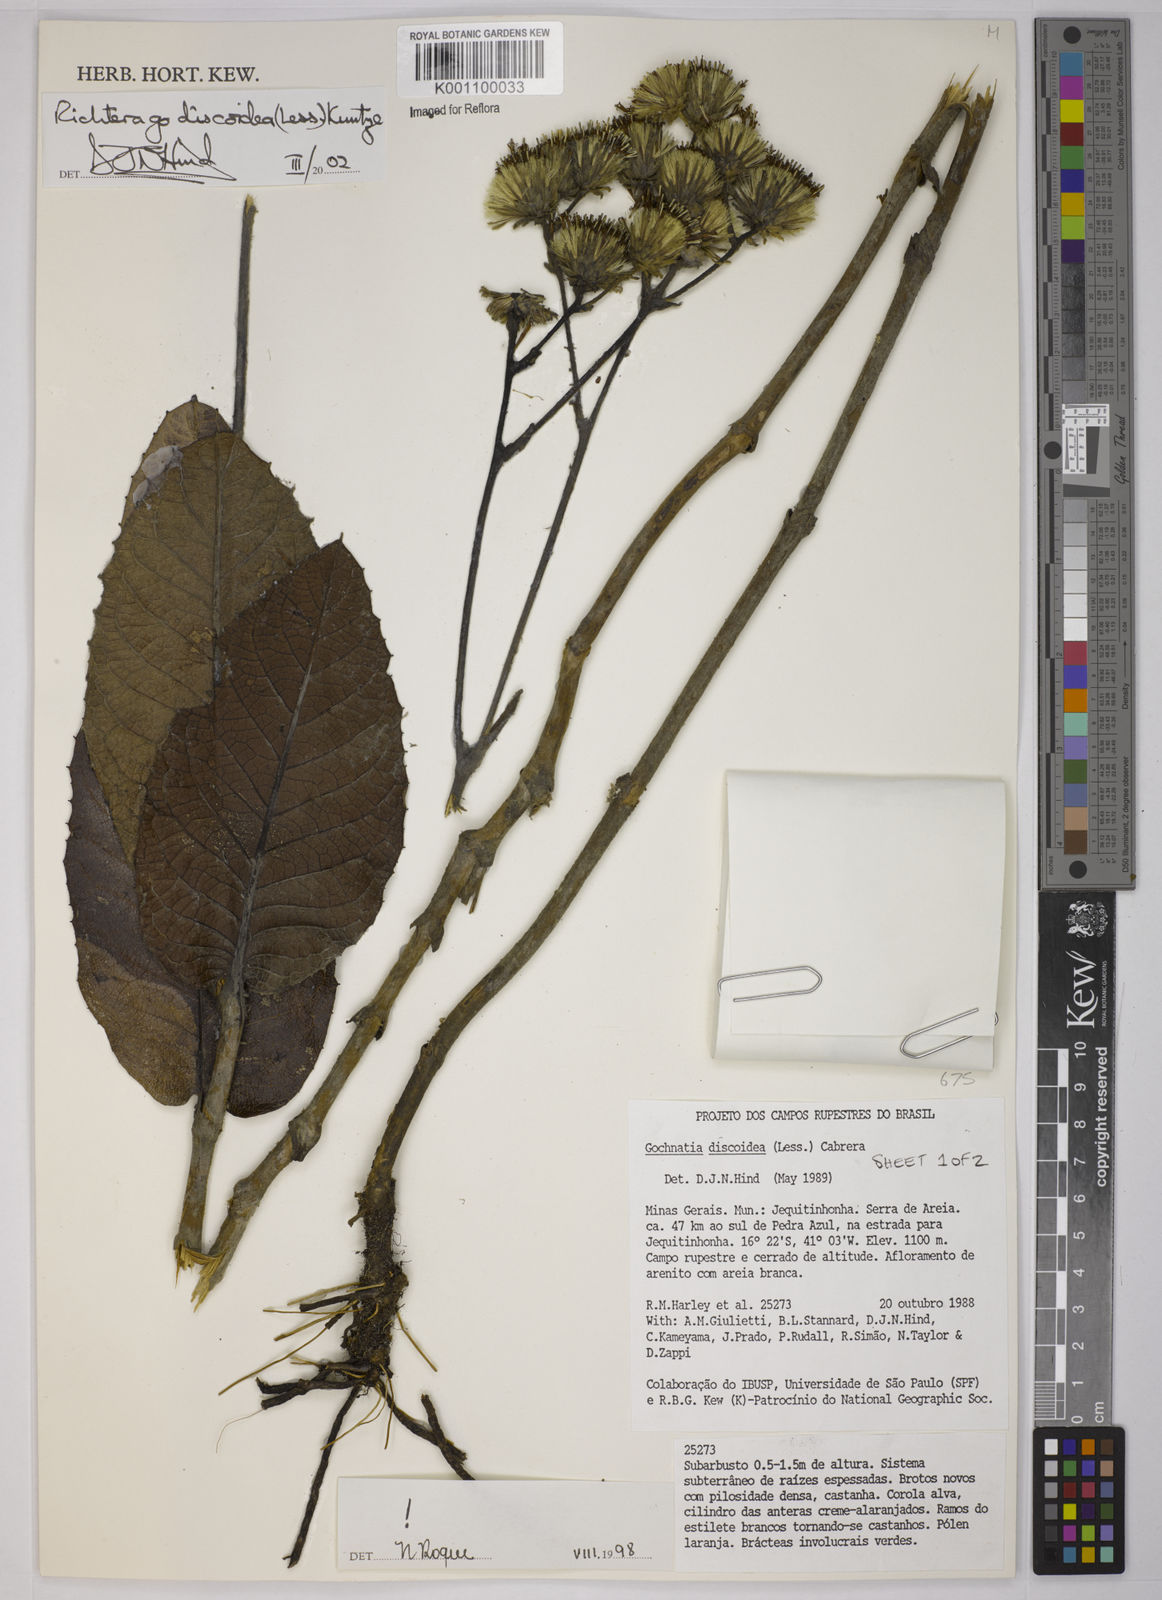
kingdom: Plantae
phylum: Tracheophyta
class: Magnoliopsida
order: Asterales
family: Asteraceae
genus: Richterago
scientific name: Richterago discoidea
